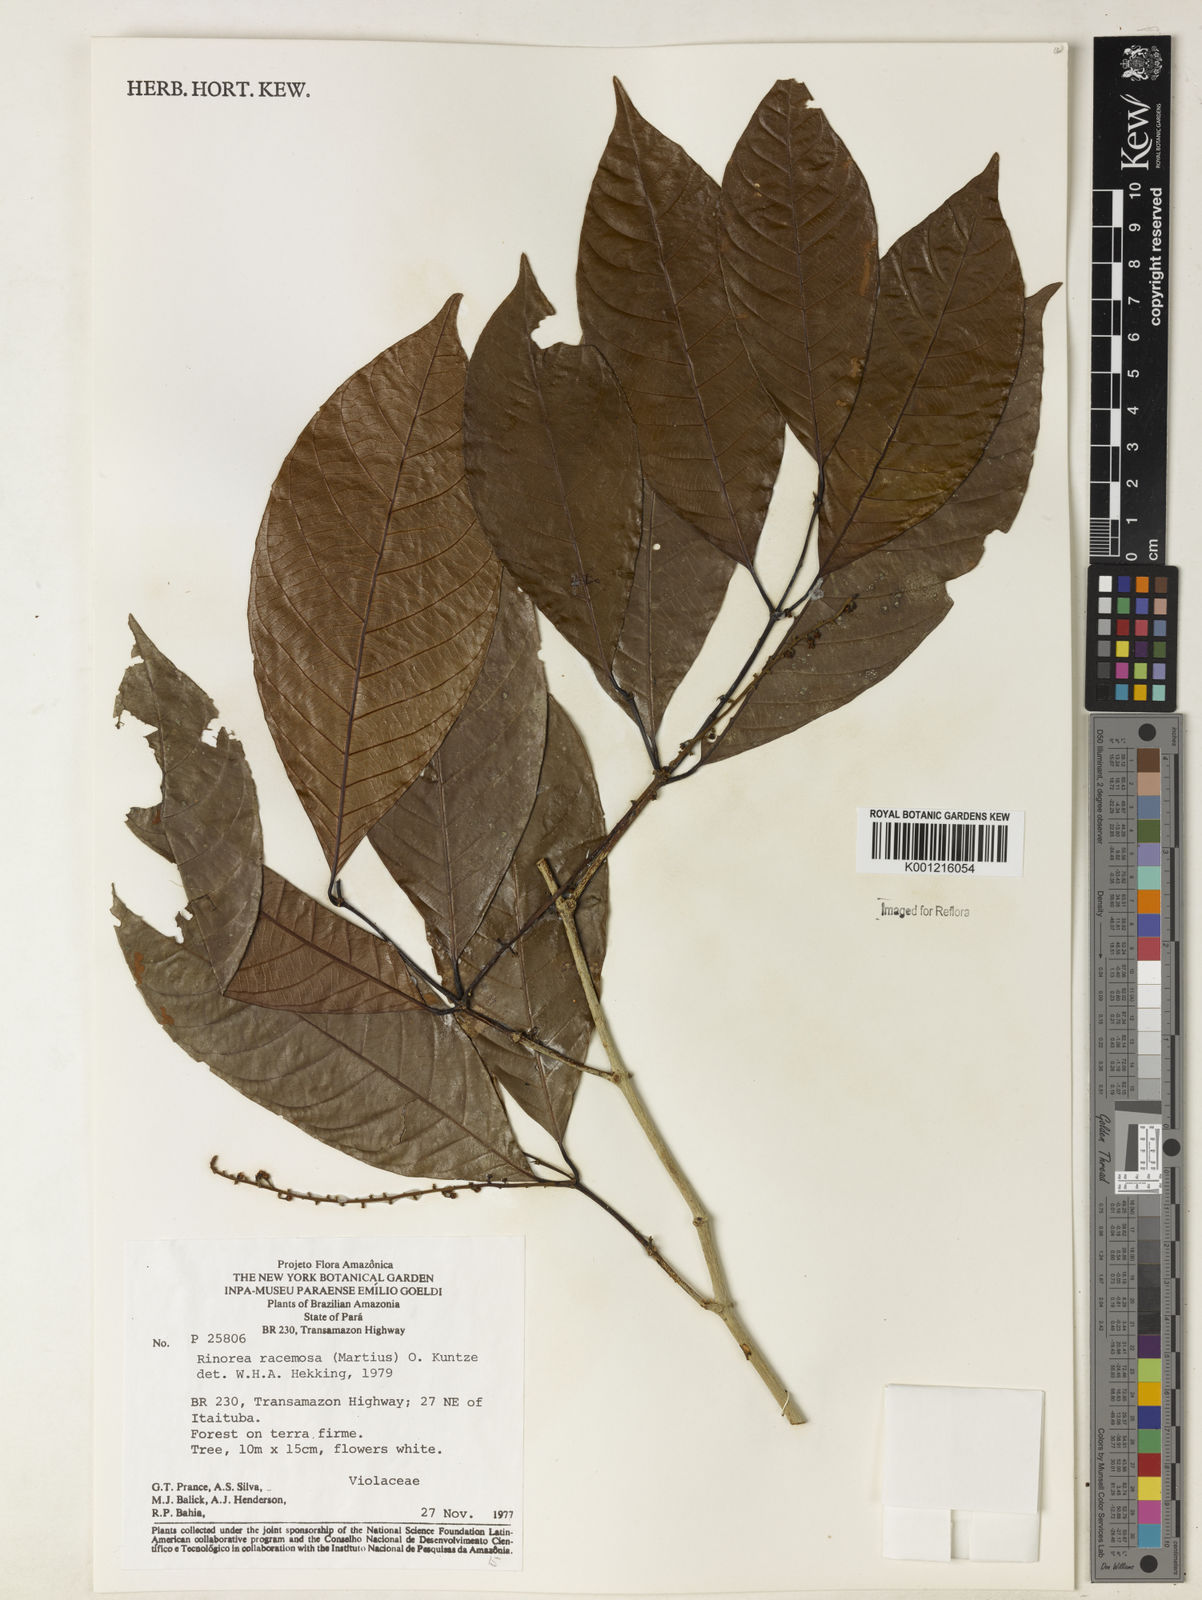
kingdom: Plantae
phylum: Tracheophyta
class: Magnoliopsida
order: Malpighiales
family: Violaceae
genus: Rinorea
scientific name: Rinorea racemosa
